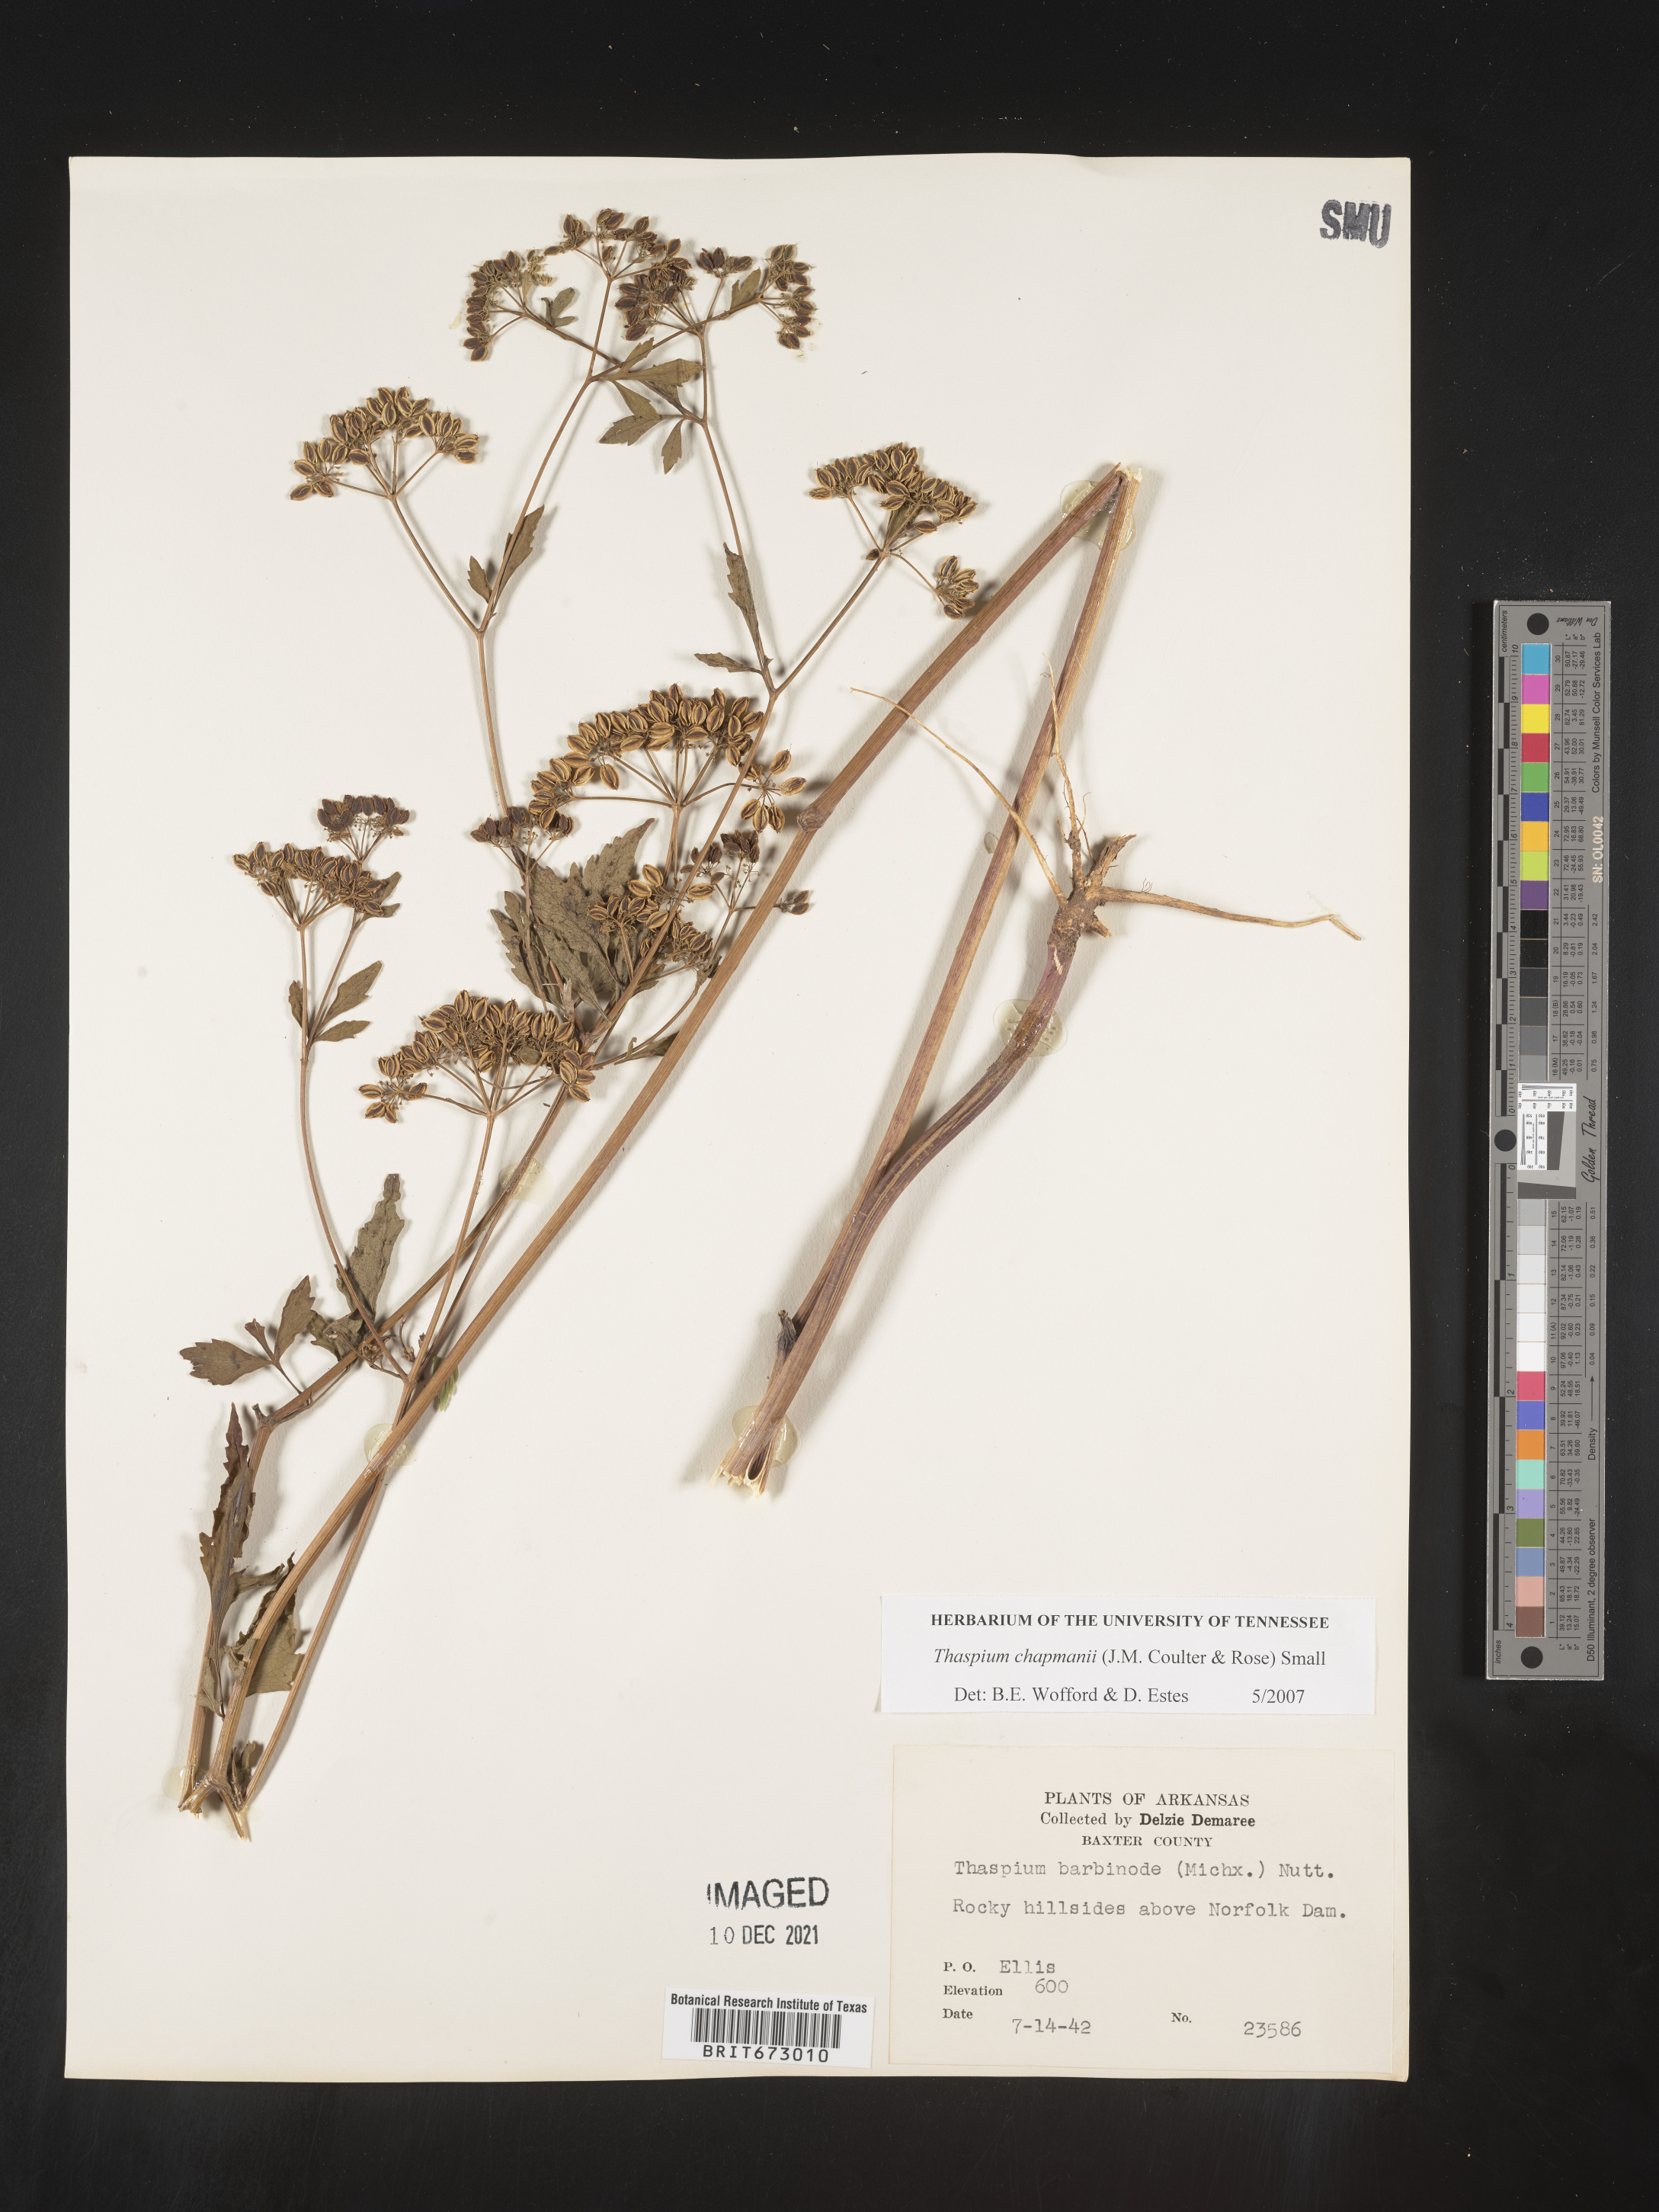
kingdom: Plantae
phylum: Tracheophyta
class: Magnoliopsida
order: Apiales
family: Apiaceae
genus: Thaspium
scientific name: Thaspium barbinode
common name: Bearded meadow-parsnip
